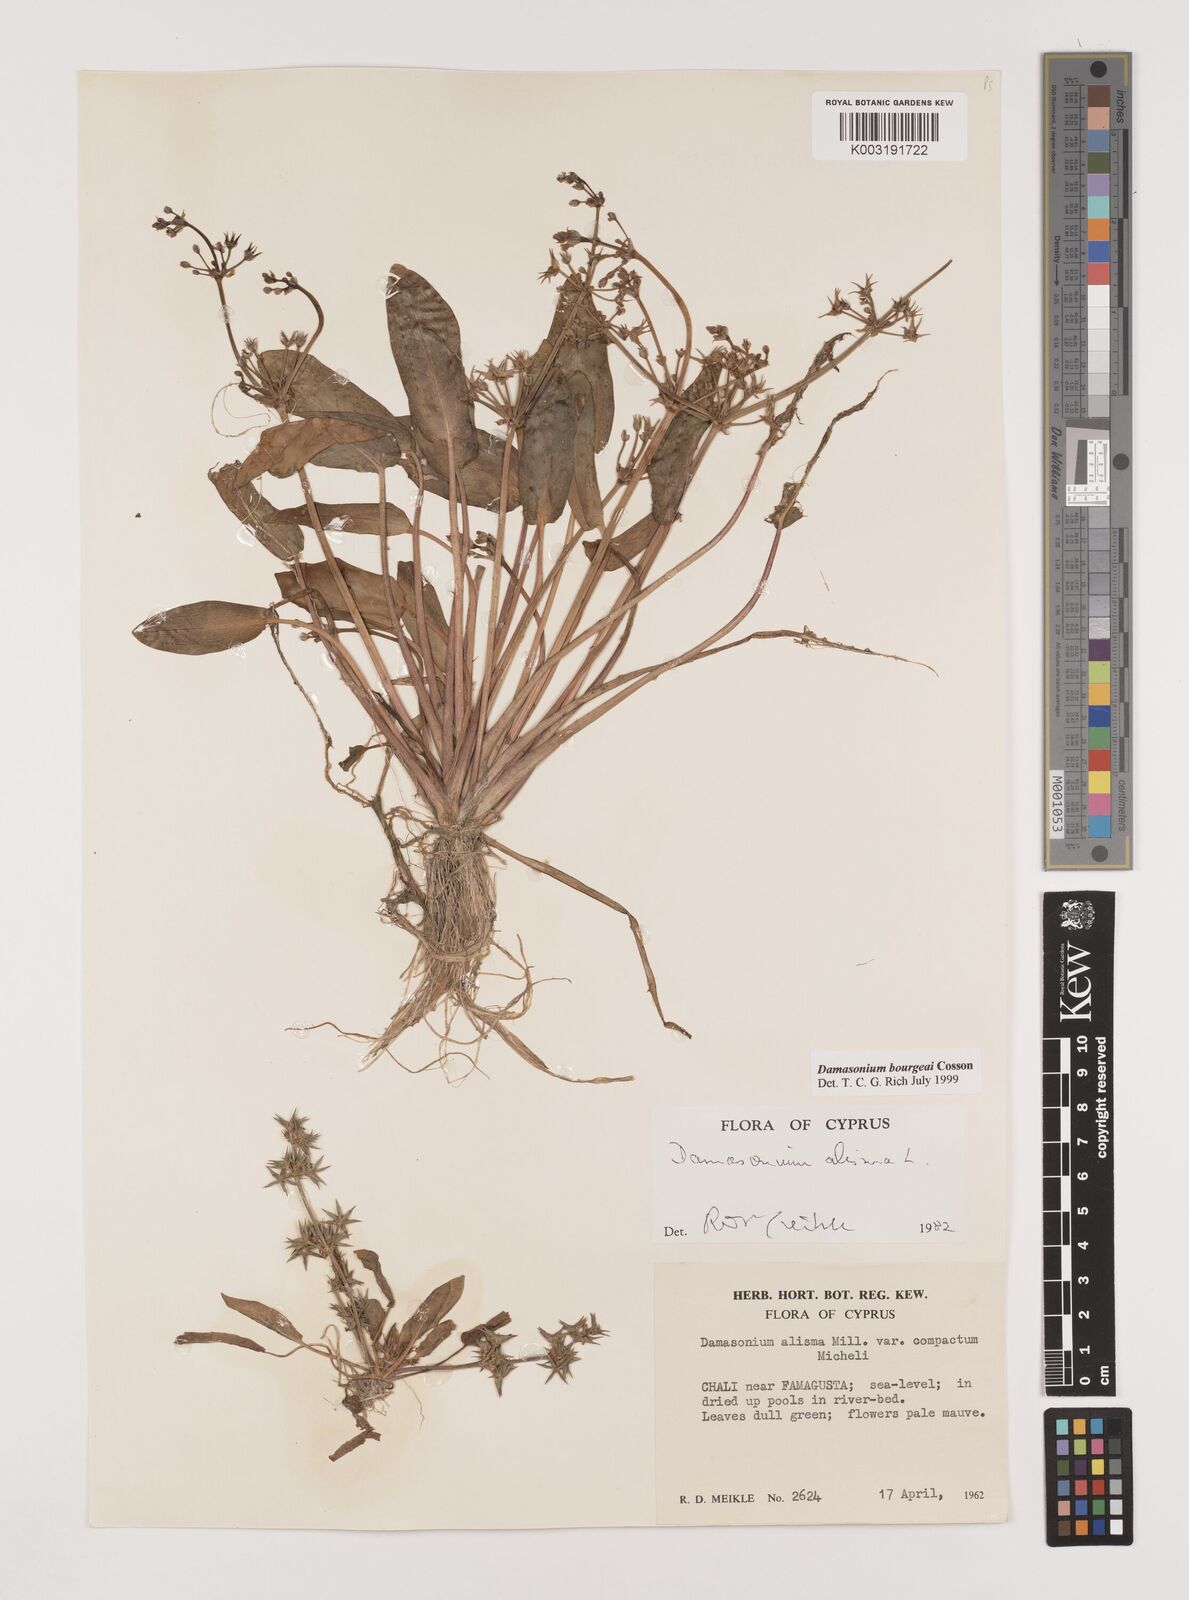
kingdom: Plantae
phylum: Tracheophyta
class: Liliopsida
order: Alismatales
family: Alismataceae
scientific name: Alismataceae
